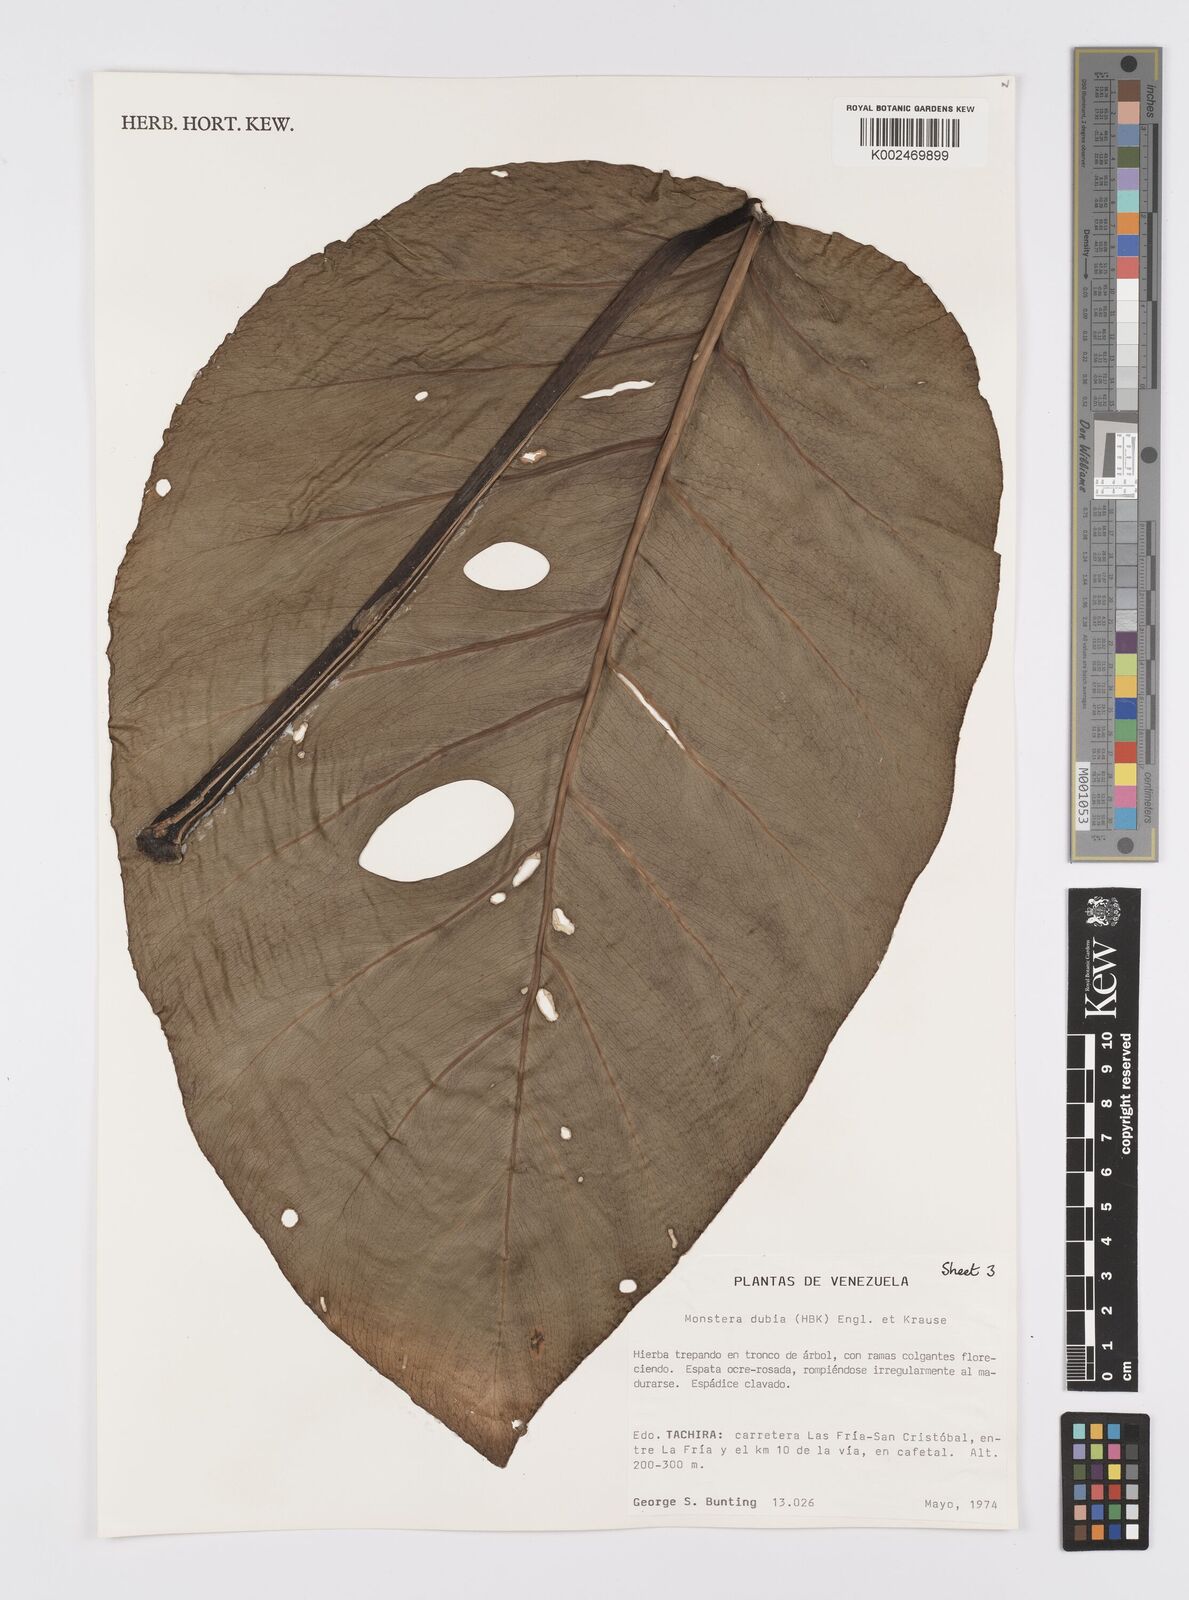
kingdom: Plantae
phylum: Tracheophyta
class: Liliopsida
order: Alismatales
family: Araceae
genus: Monstera
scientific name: Monstera dubia
